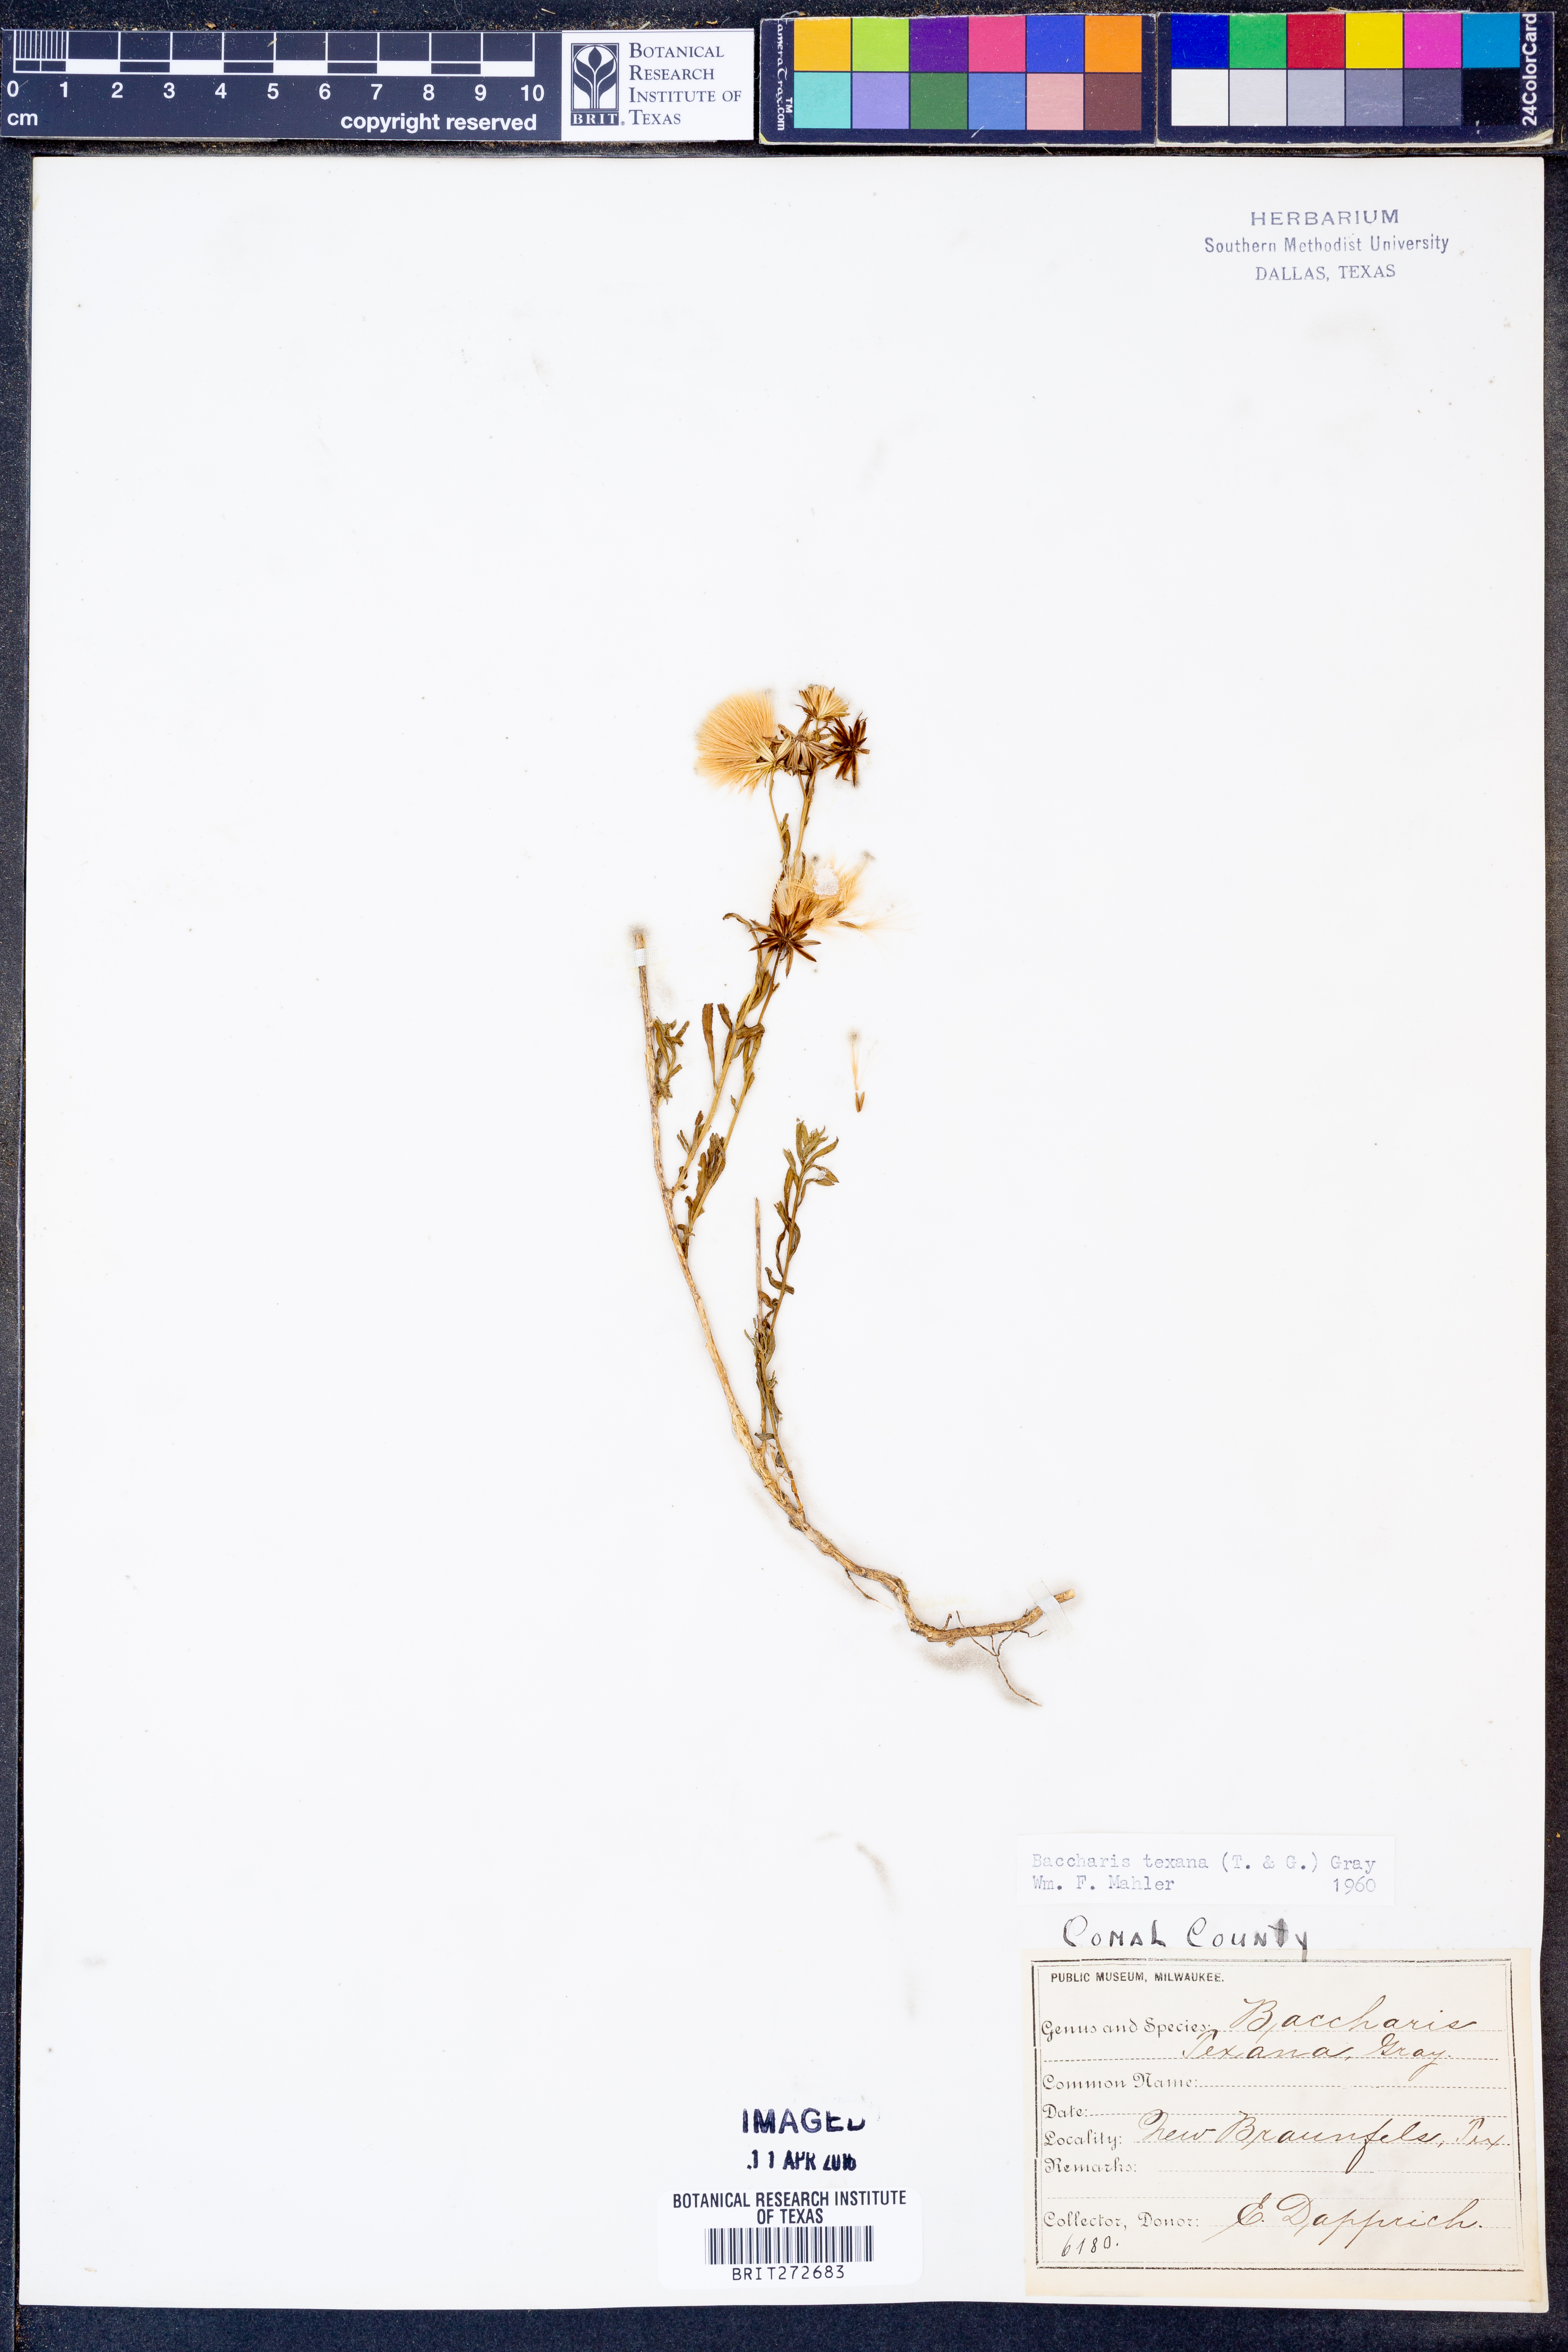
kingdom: Plantae
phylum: Tracheophyta
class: Magnoliopsida
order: Asterales
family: Asteraceae
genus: Baccharis
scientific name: Baccharis texana
